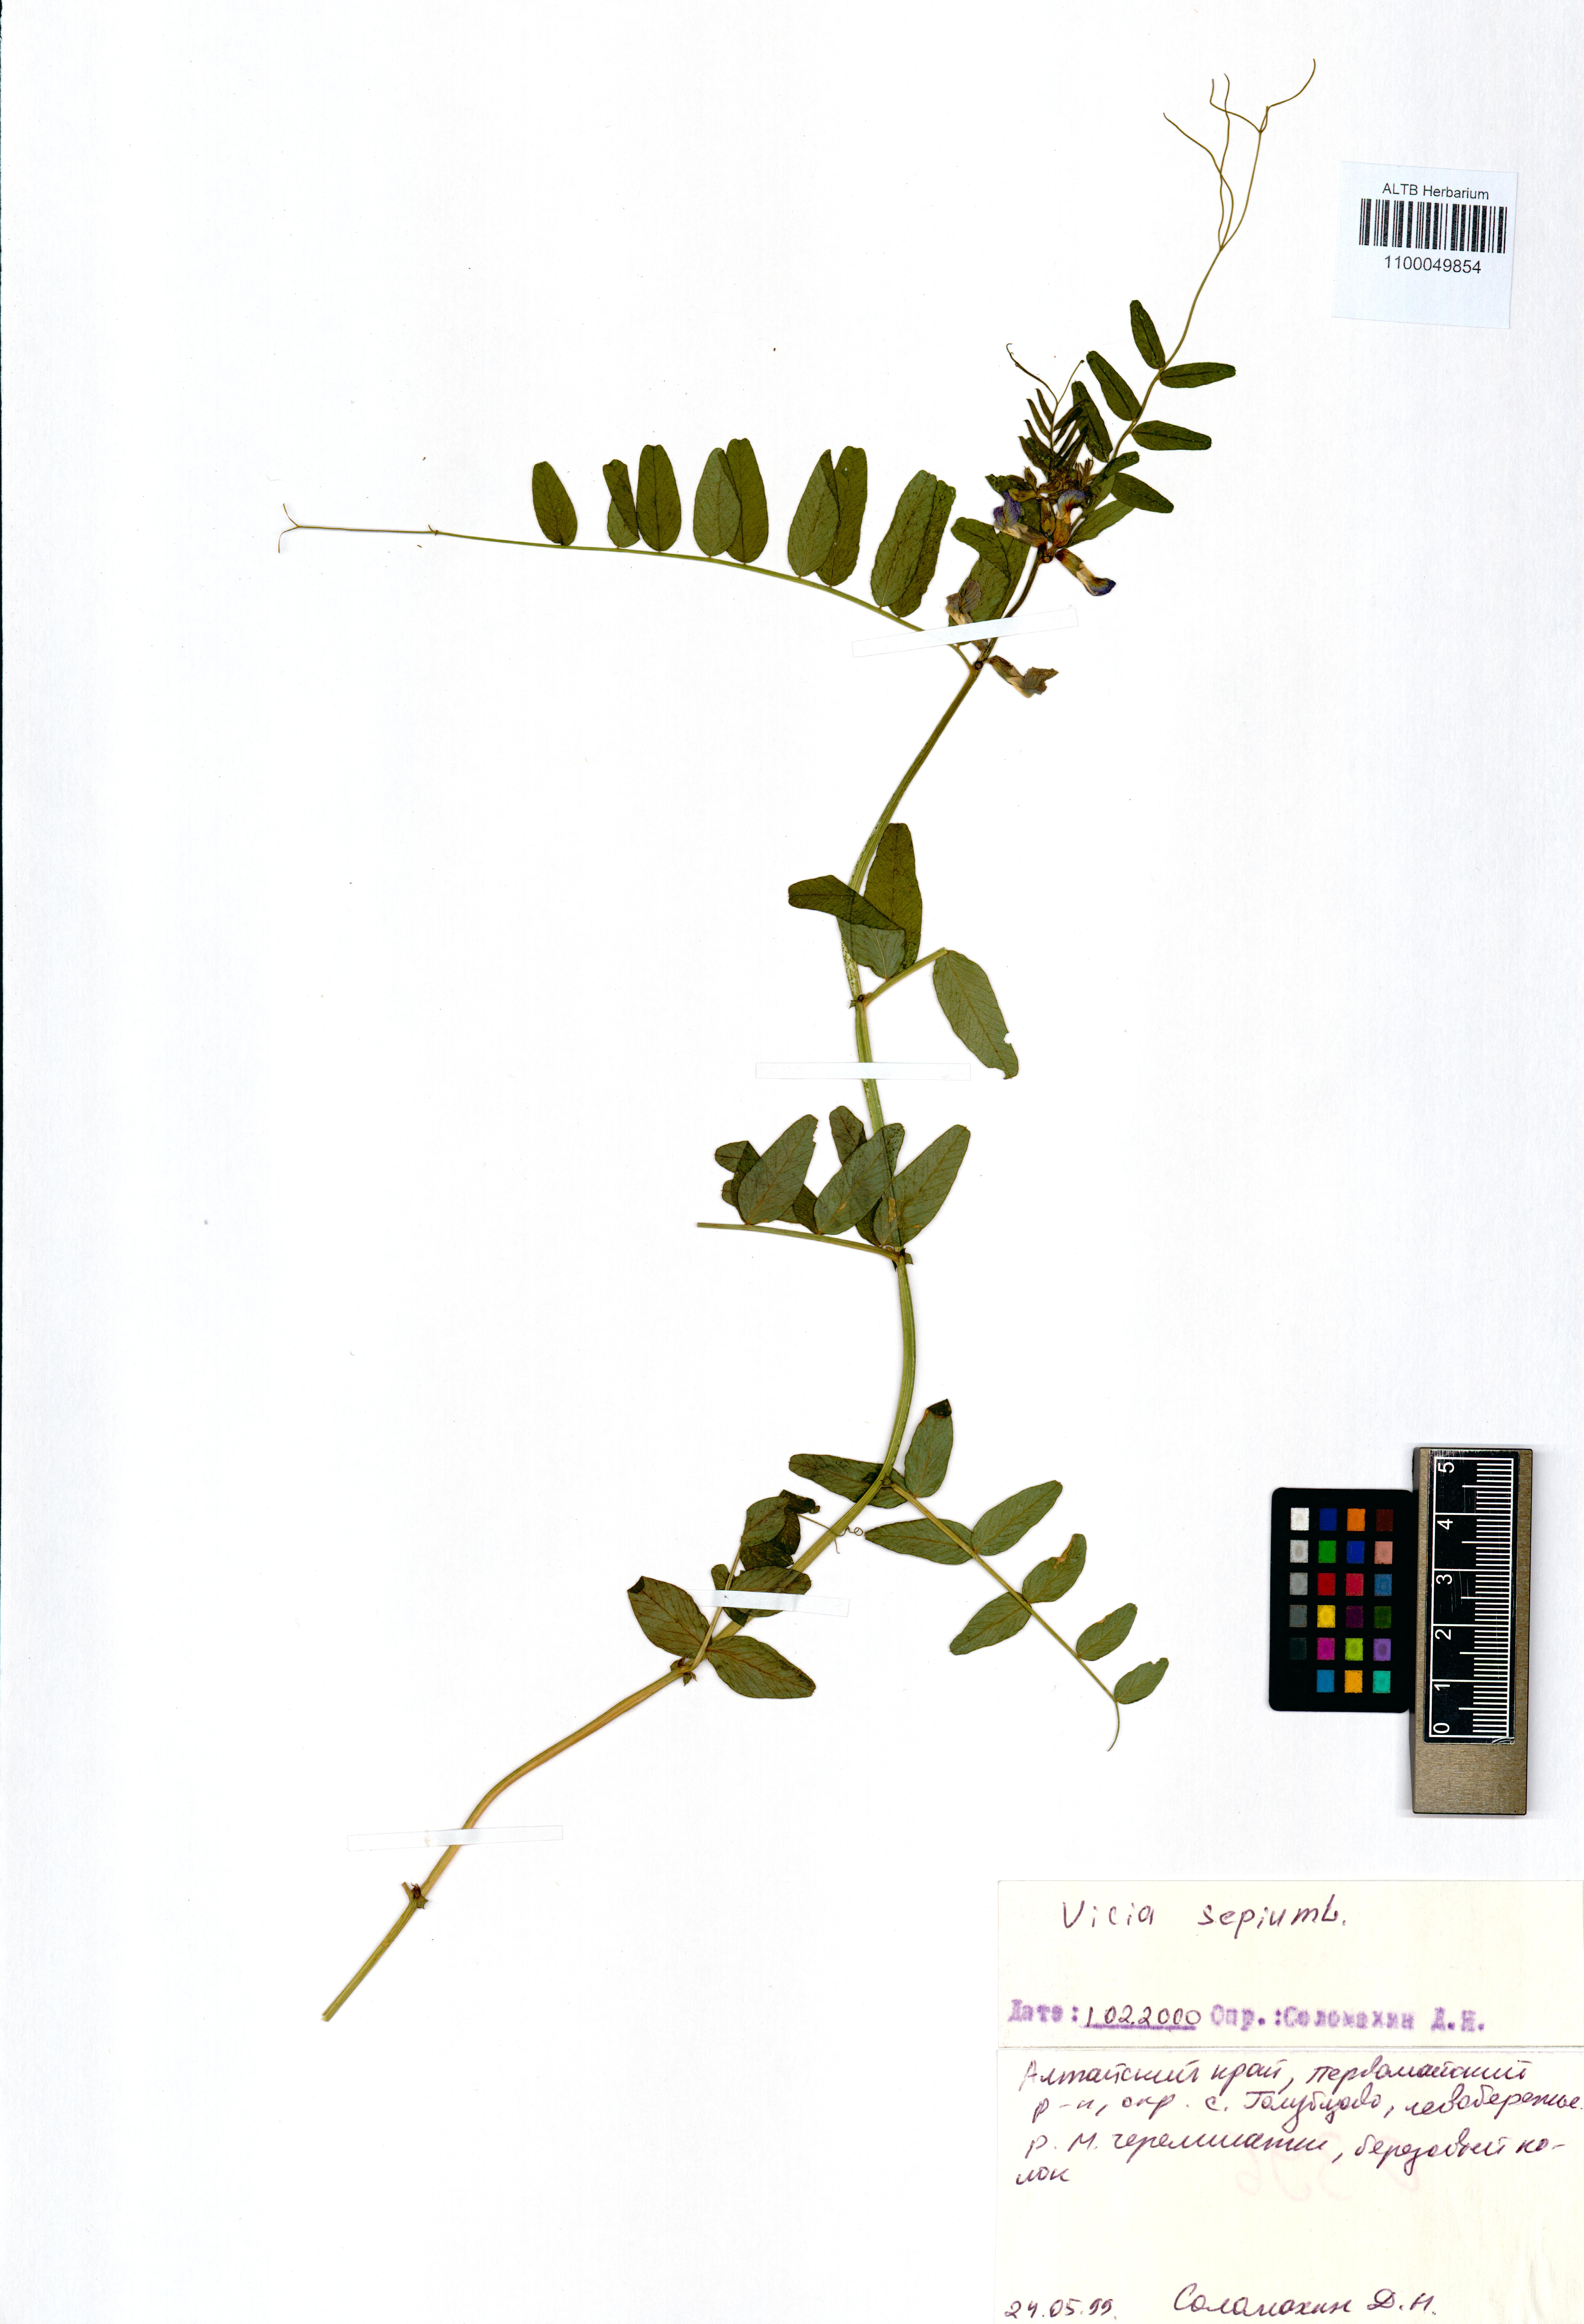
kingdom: Plantae
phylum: Tracheophyta
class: Magnoliopsida
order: Fabales
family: Fabaceae
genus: Vicia
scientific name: Vicia sepium
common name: Bush vetch
